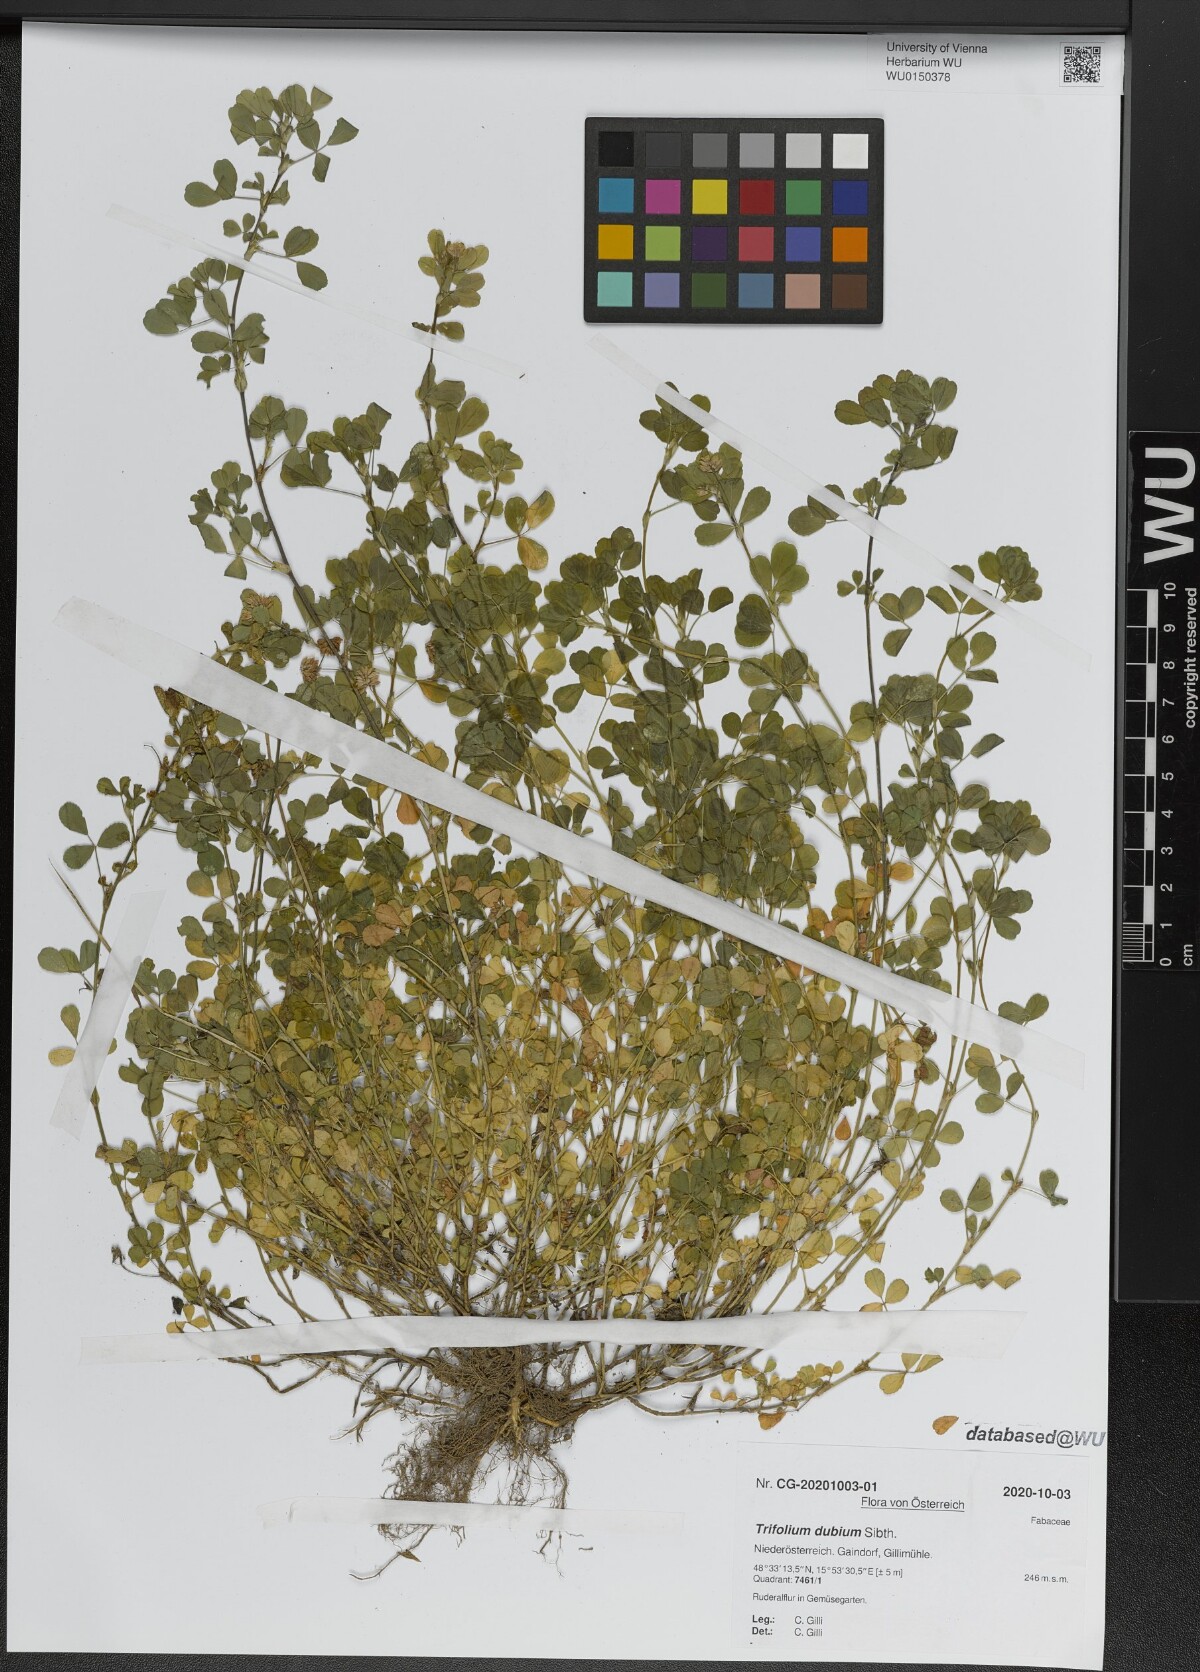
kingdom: Plantae
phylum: Tracheophyta
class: Magnoliopsida
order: Fabales
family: Fabaceae
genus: Trifolium
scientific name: Trifolium dubium
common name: Suckling clover
